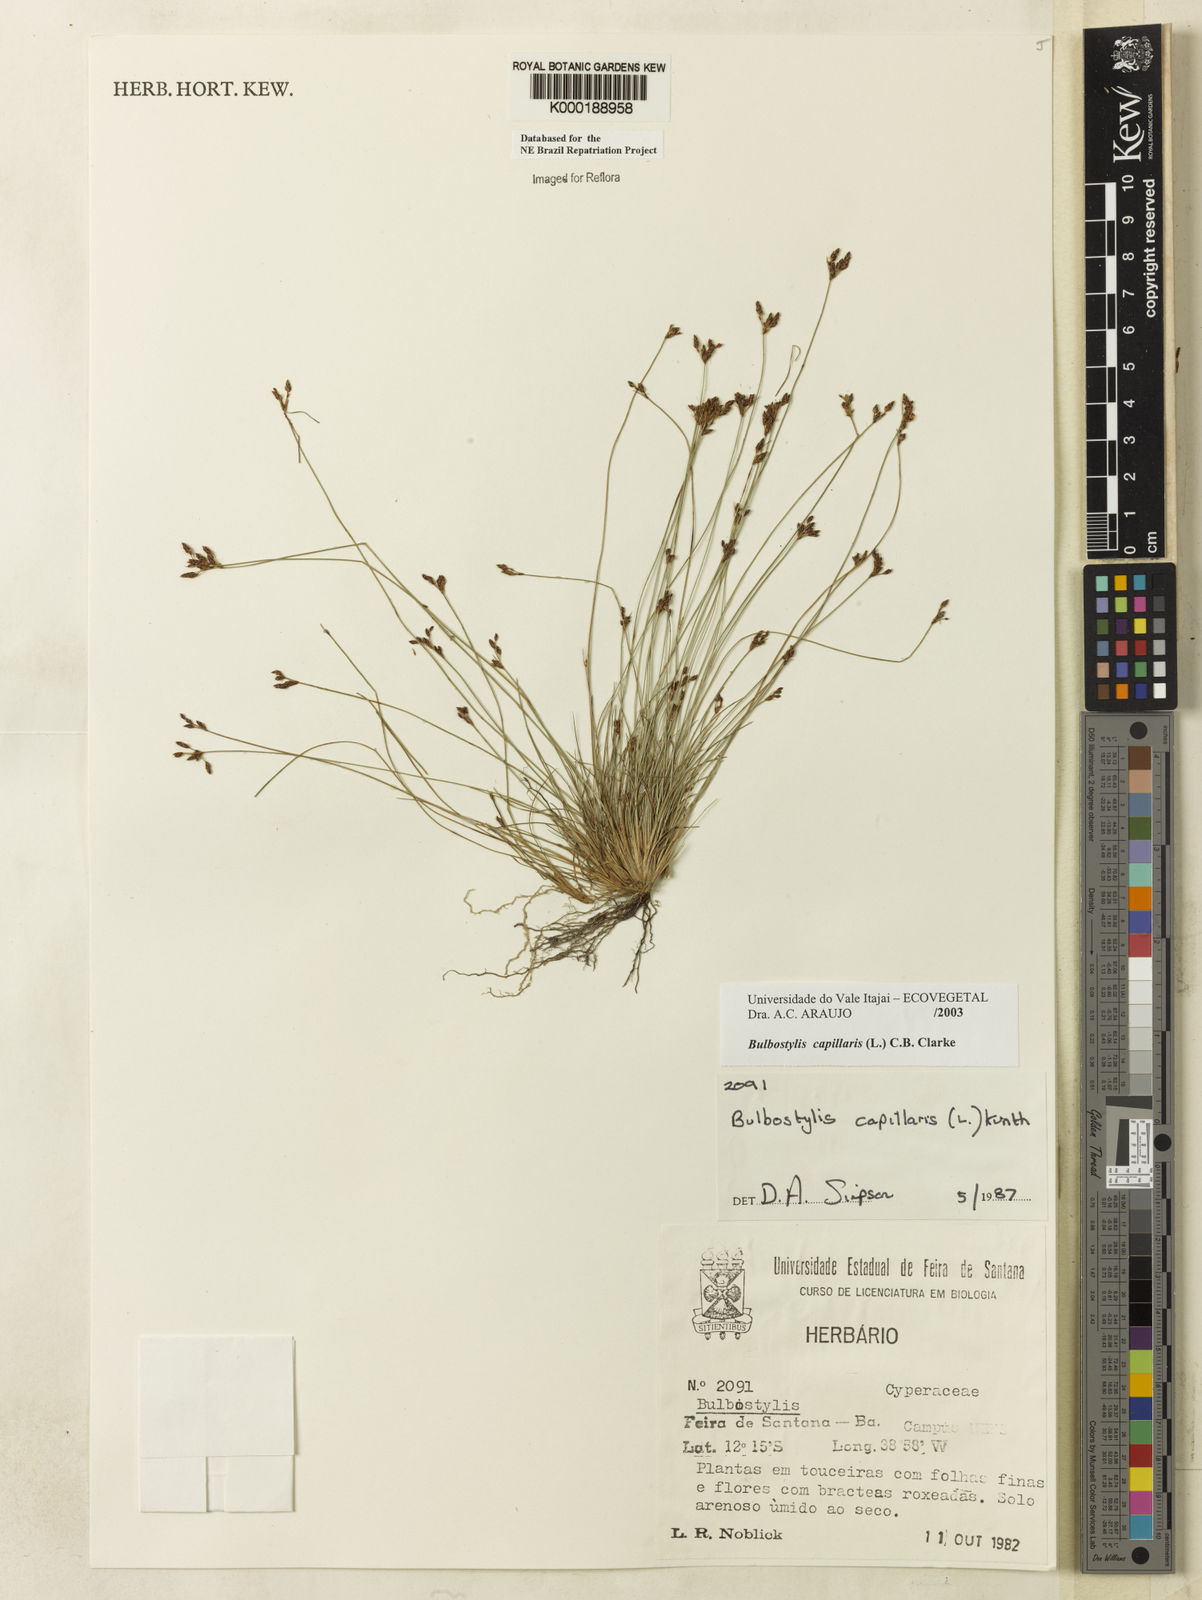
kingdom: Plantae
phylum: Tracheophyta
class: Liliopsida
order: Poales
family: Cyperaceae
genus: Bulbostylis
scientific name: Bulbostylis capillaris
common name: Densetuft hairsedge
